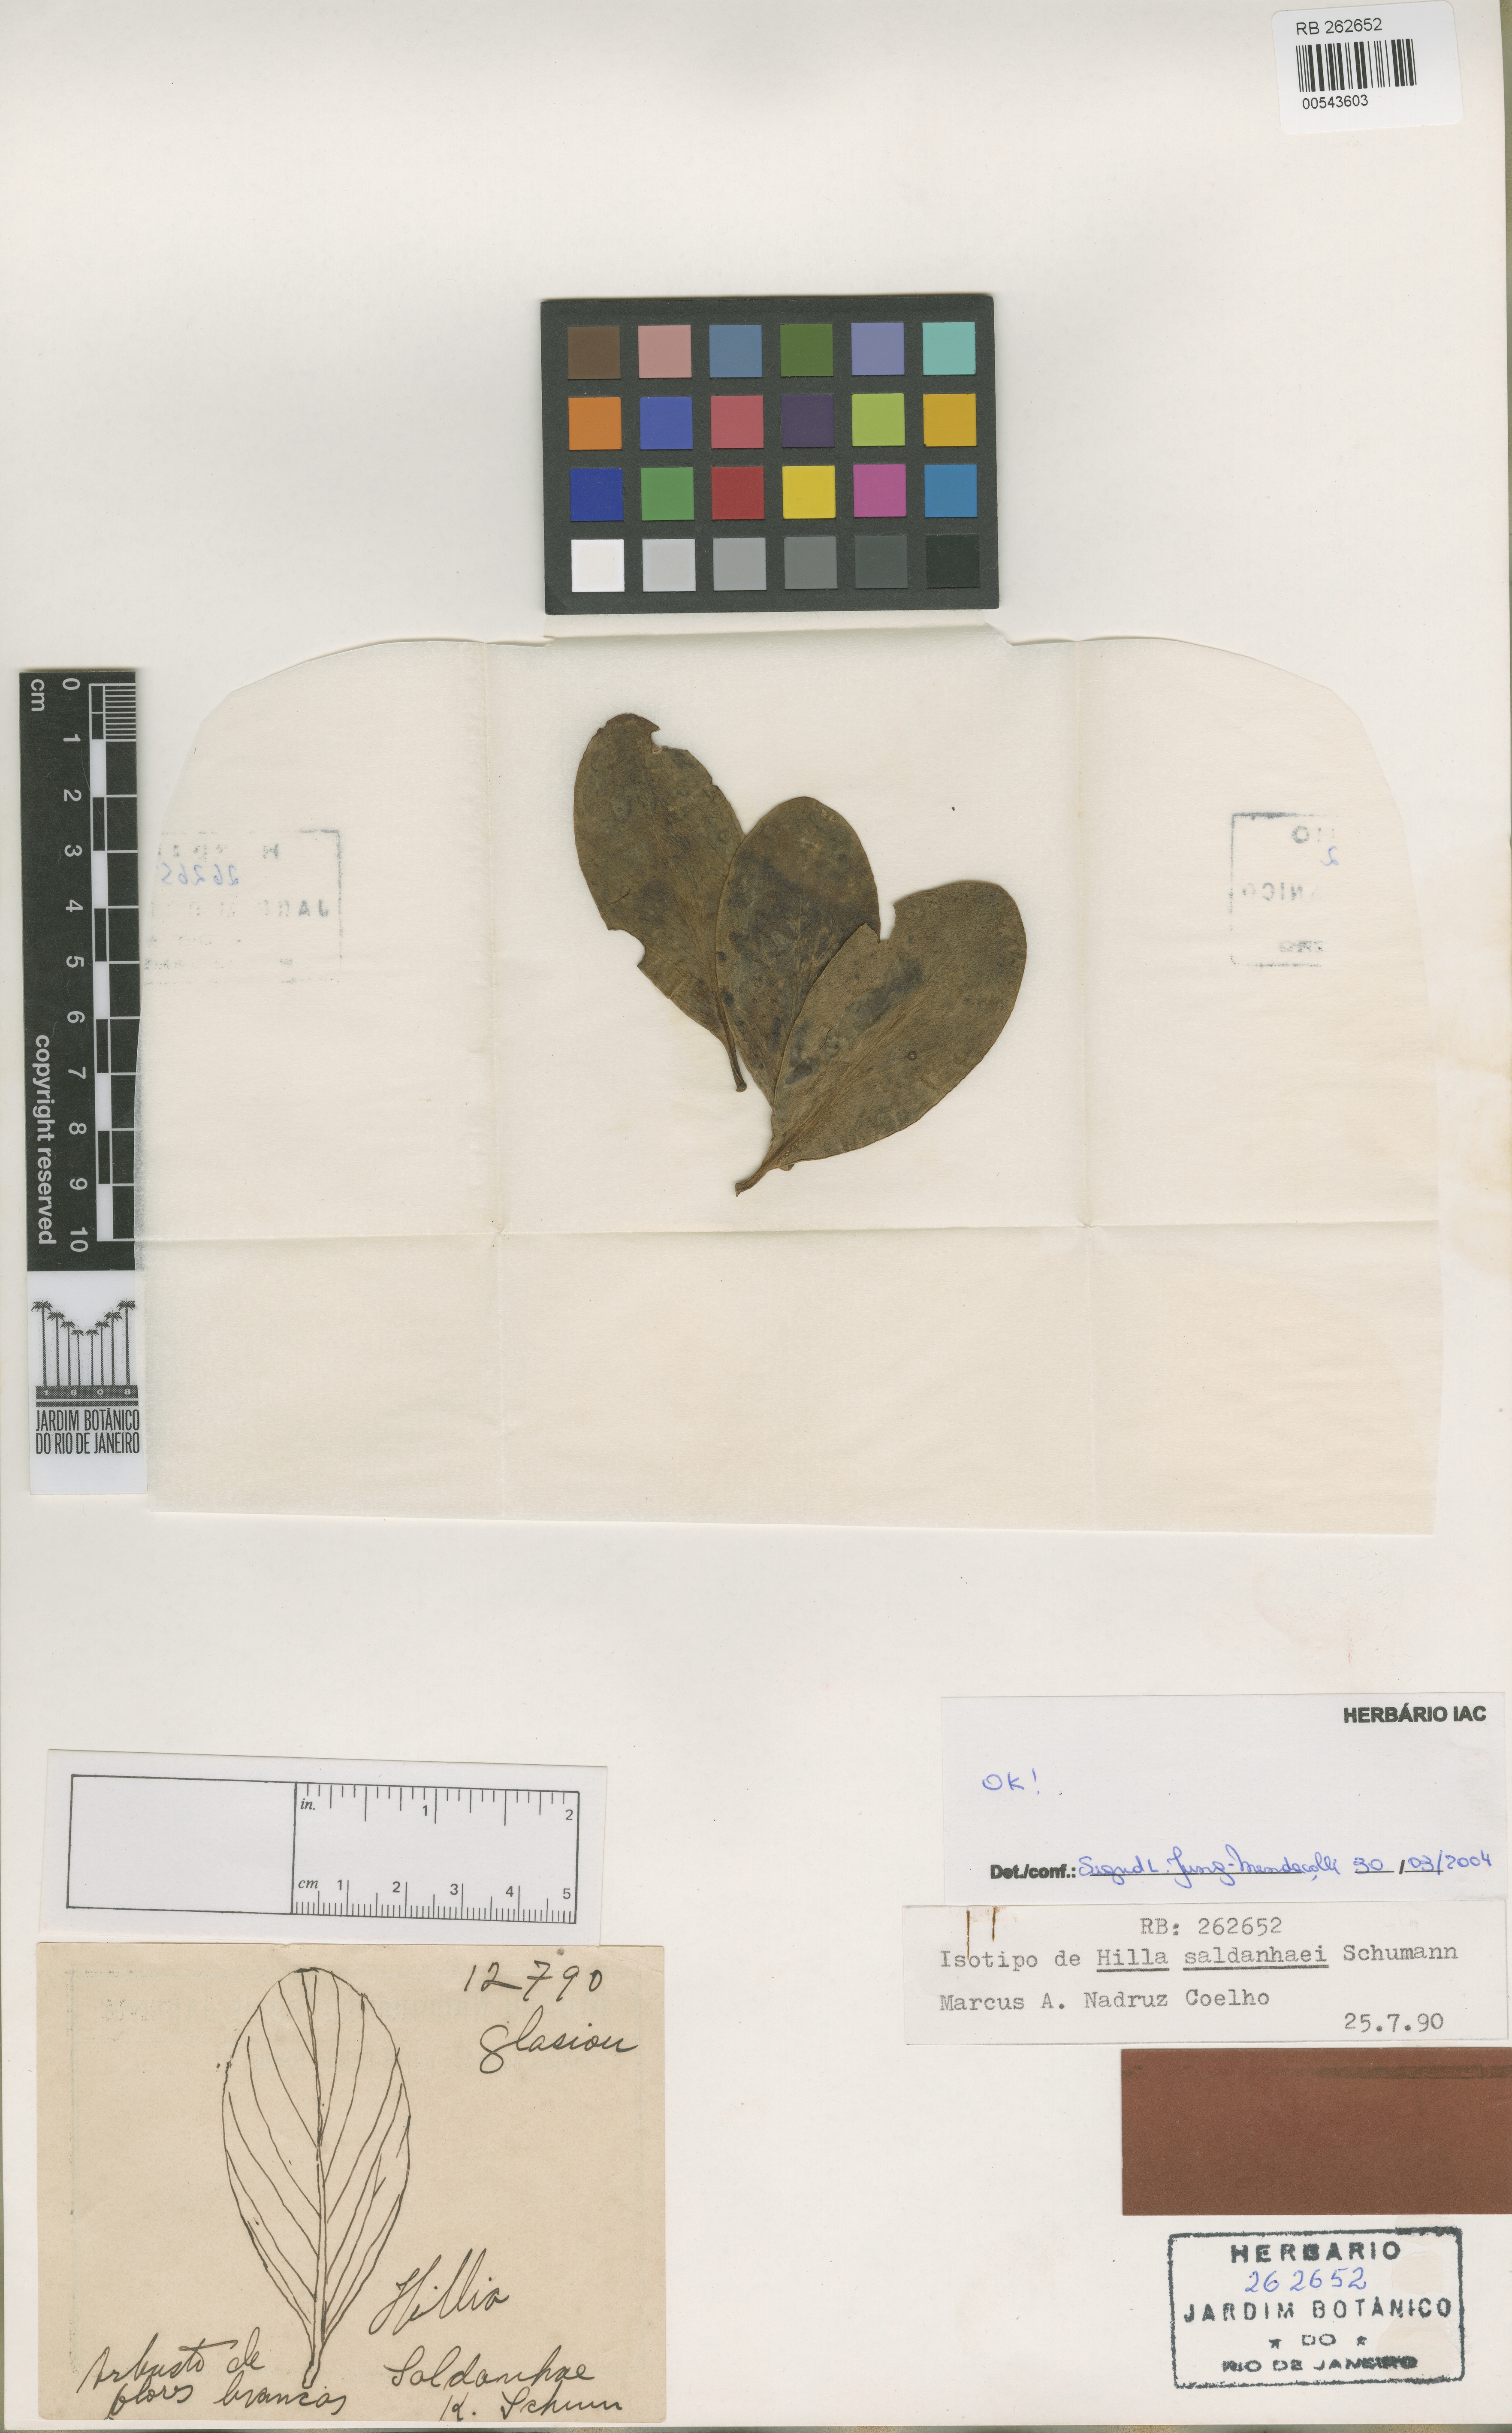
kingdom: Plantae
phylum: Tracheophyta
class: Magnoliopsida
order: Gentianales
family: Rubiaceae
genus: Hillia
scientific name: Hillia saldanhaei
